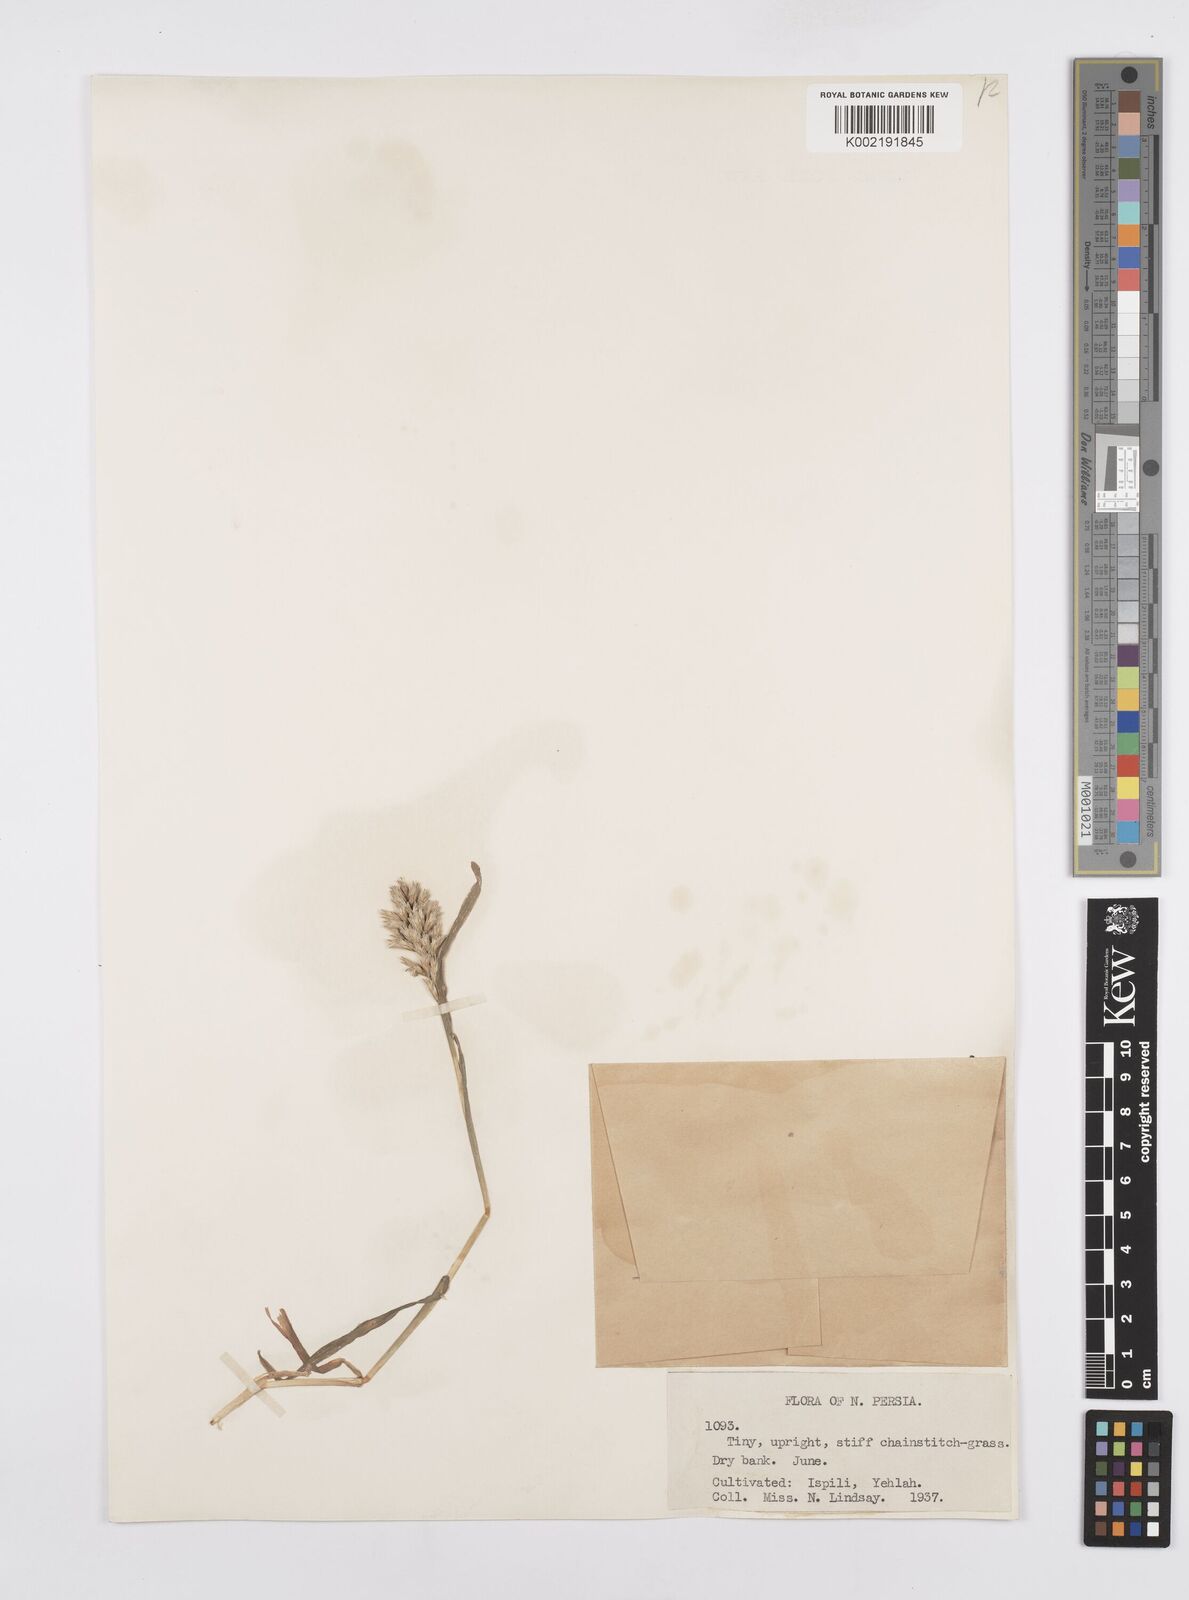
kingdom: Plantae
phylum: Tracheophyta
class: Liliopsida
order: Poales
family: Poaceae
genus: Sclerochloa
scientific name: Sclerochloa dura
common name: Common hardgrass
